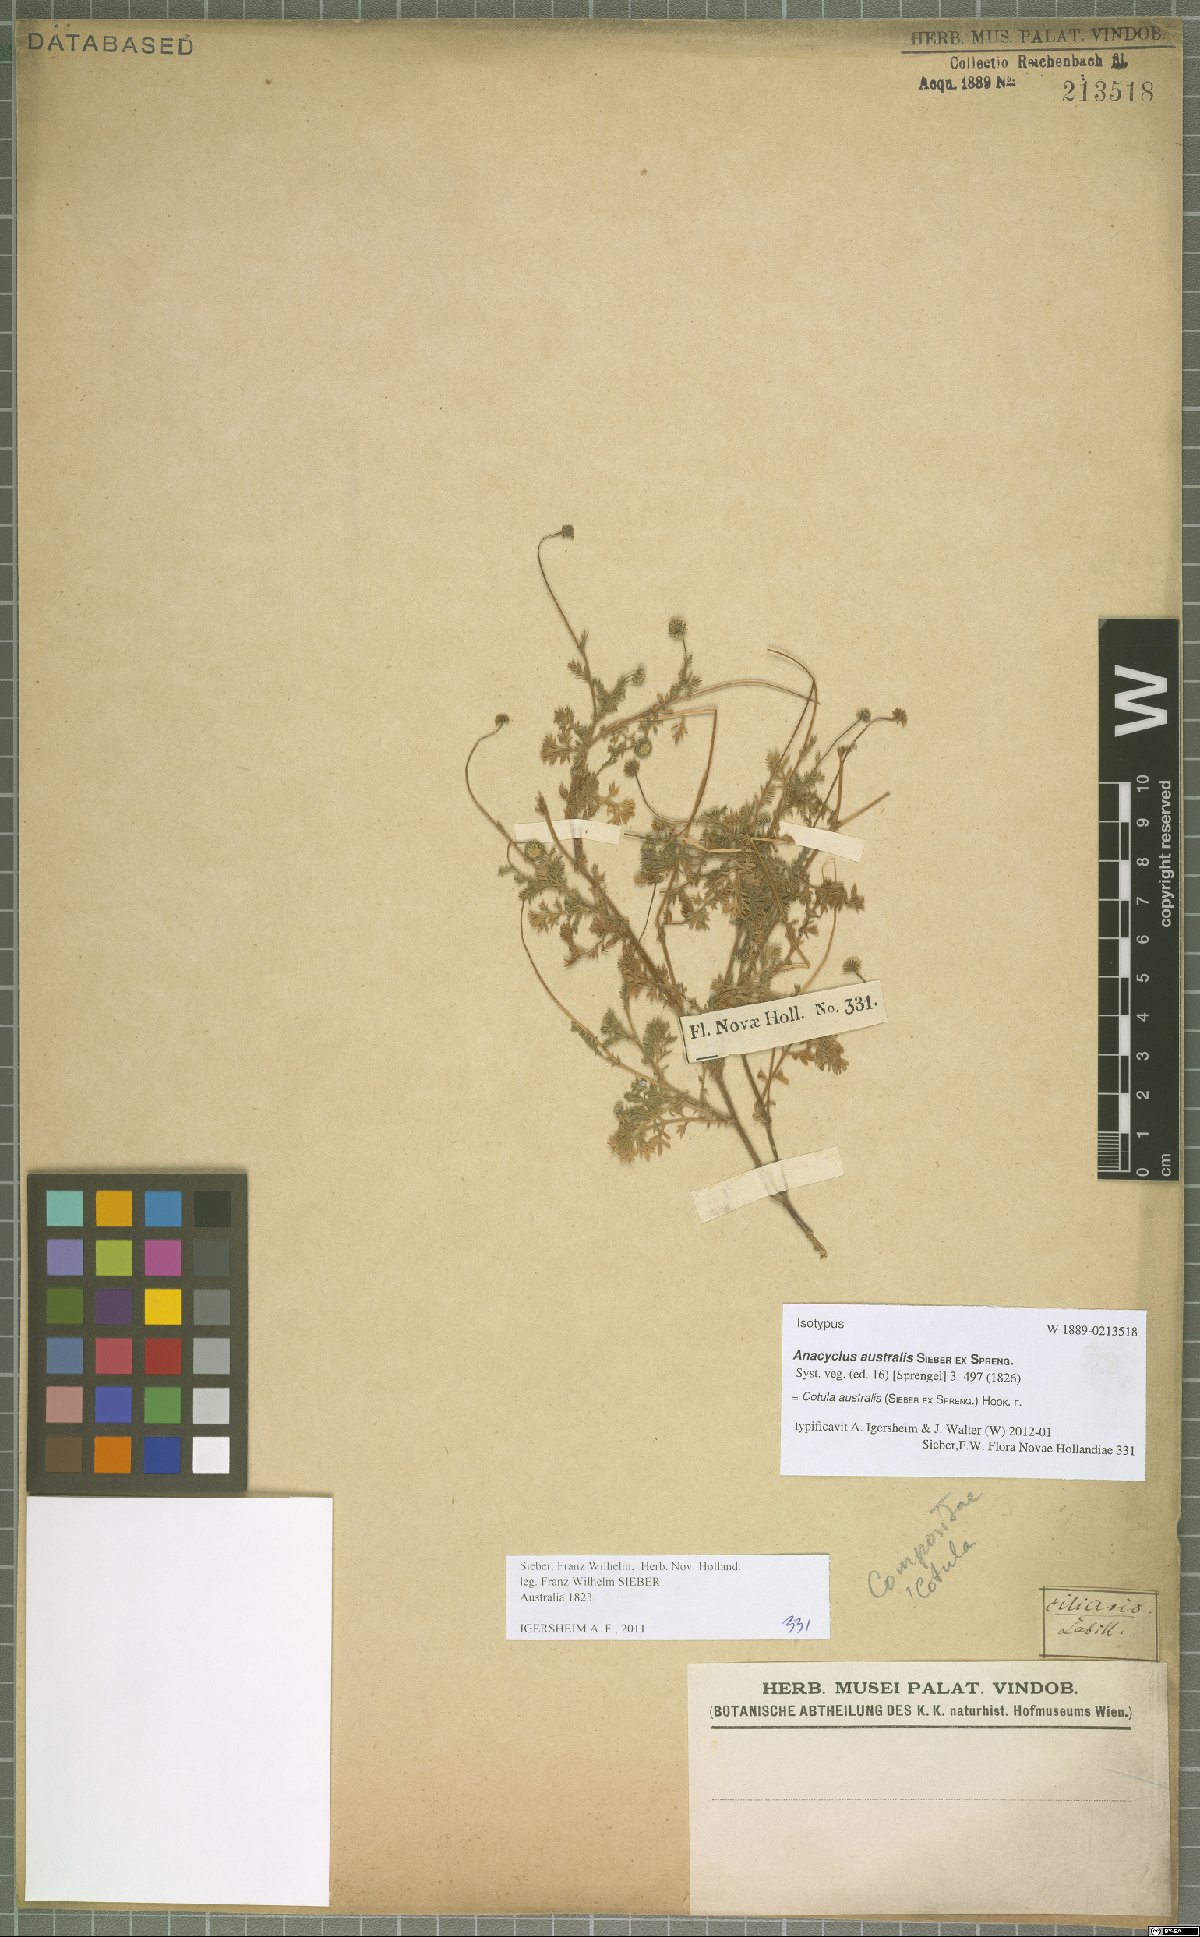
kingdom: Plantae
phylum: Tracheophyta
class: Magnoliopsida
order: Asterales
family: Asteraceae
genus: Cotula
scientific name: Cotula australis
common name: Australian waterbuttons
